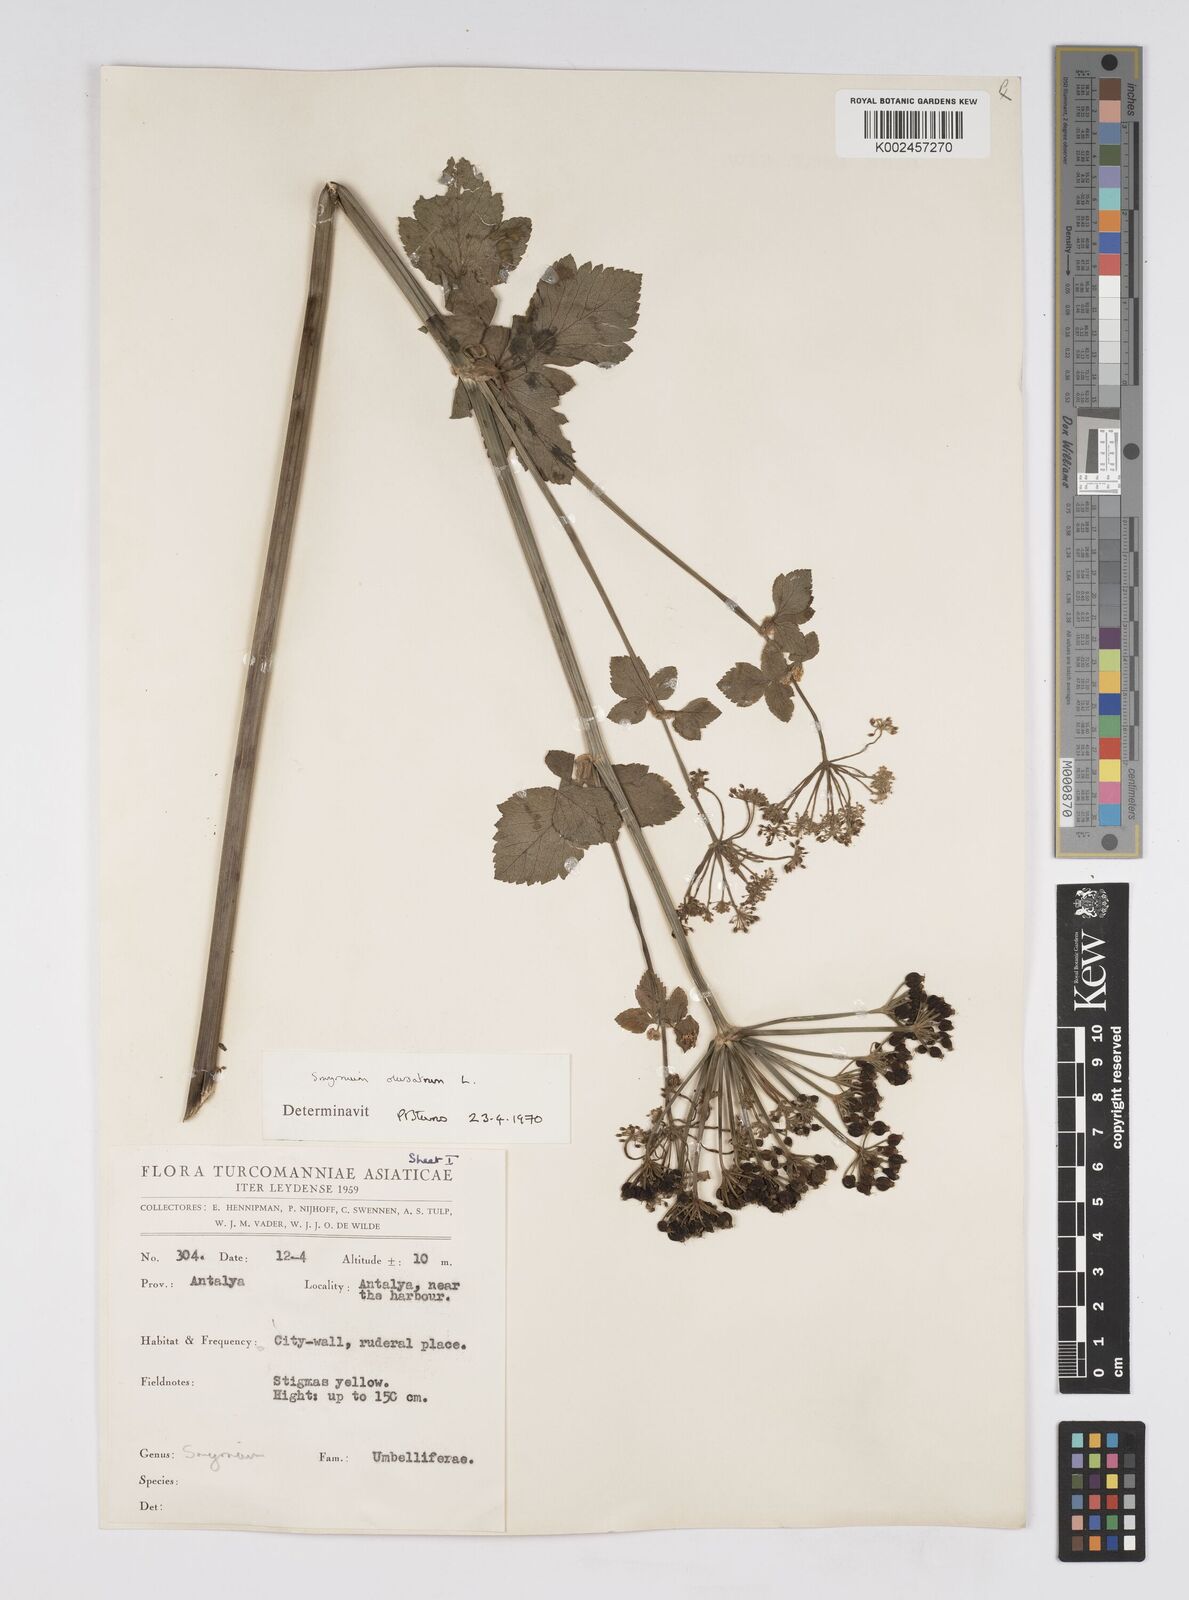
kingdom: Plantae
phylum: Tracheophyta
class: Magnoliopsida
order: Apiales
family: Apiaceae
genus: Smyrnium
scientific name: Smyrnium olusatrum
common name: Alexanders
